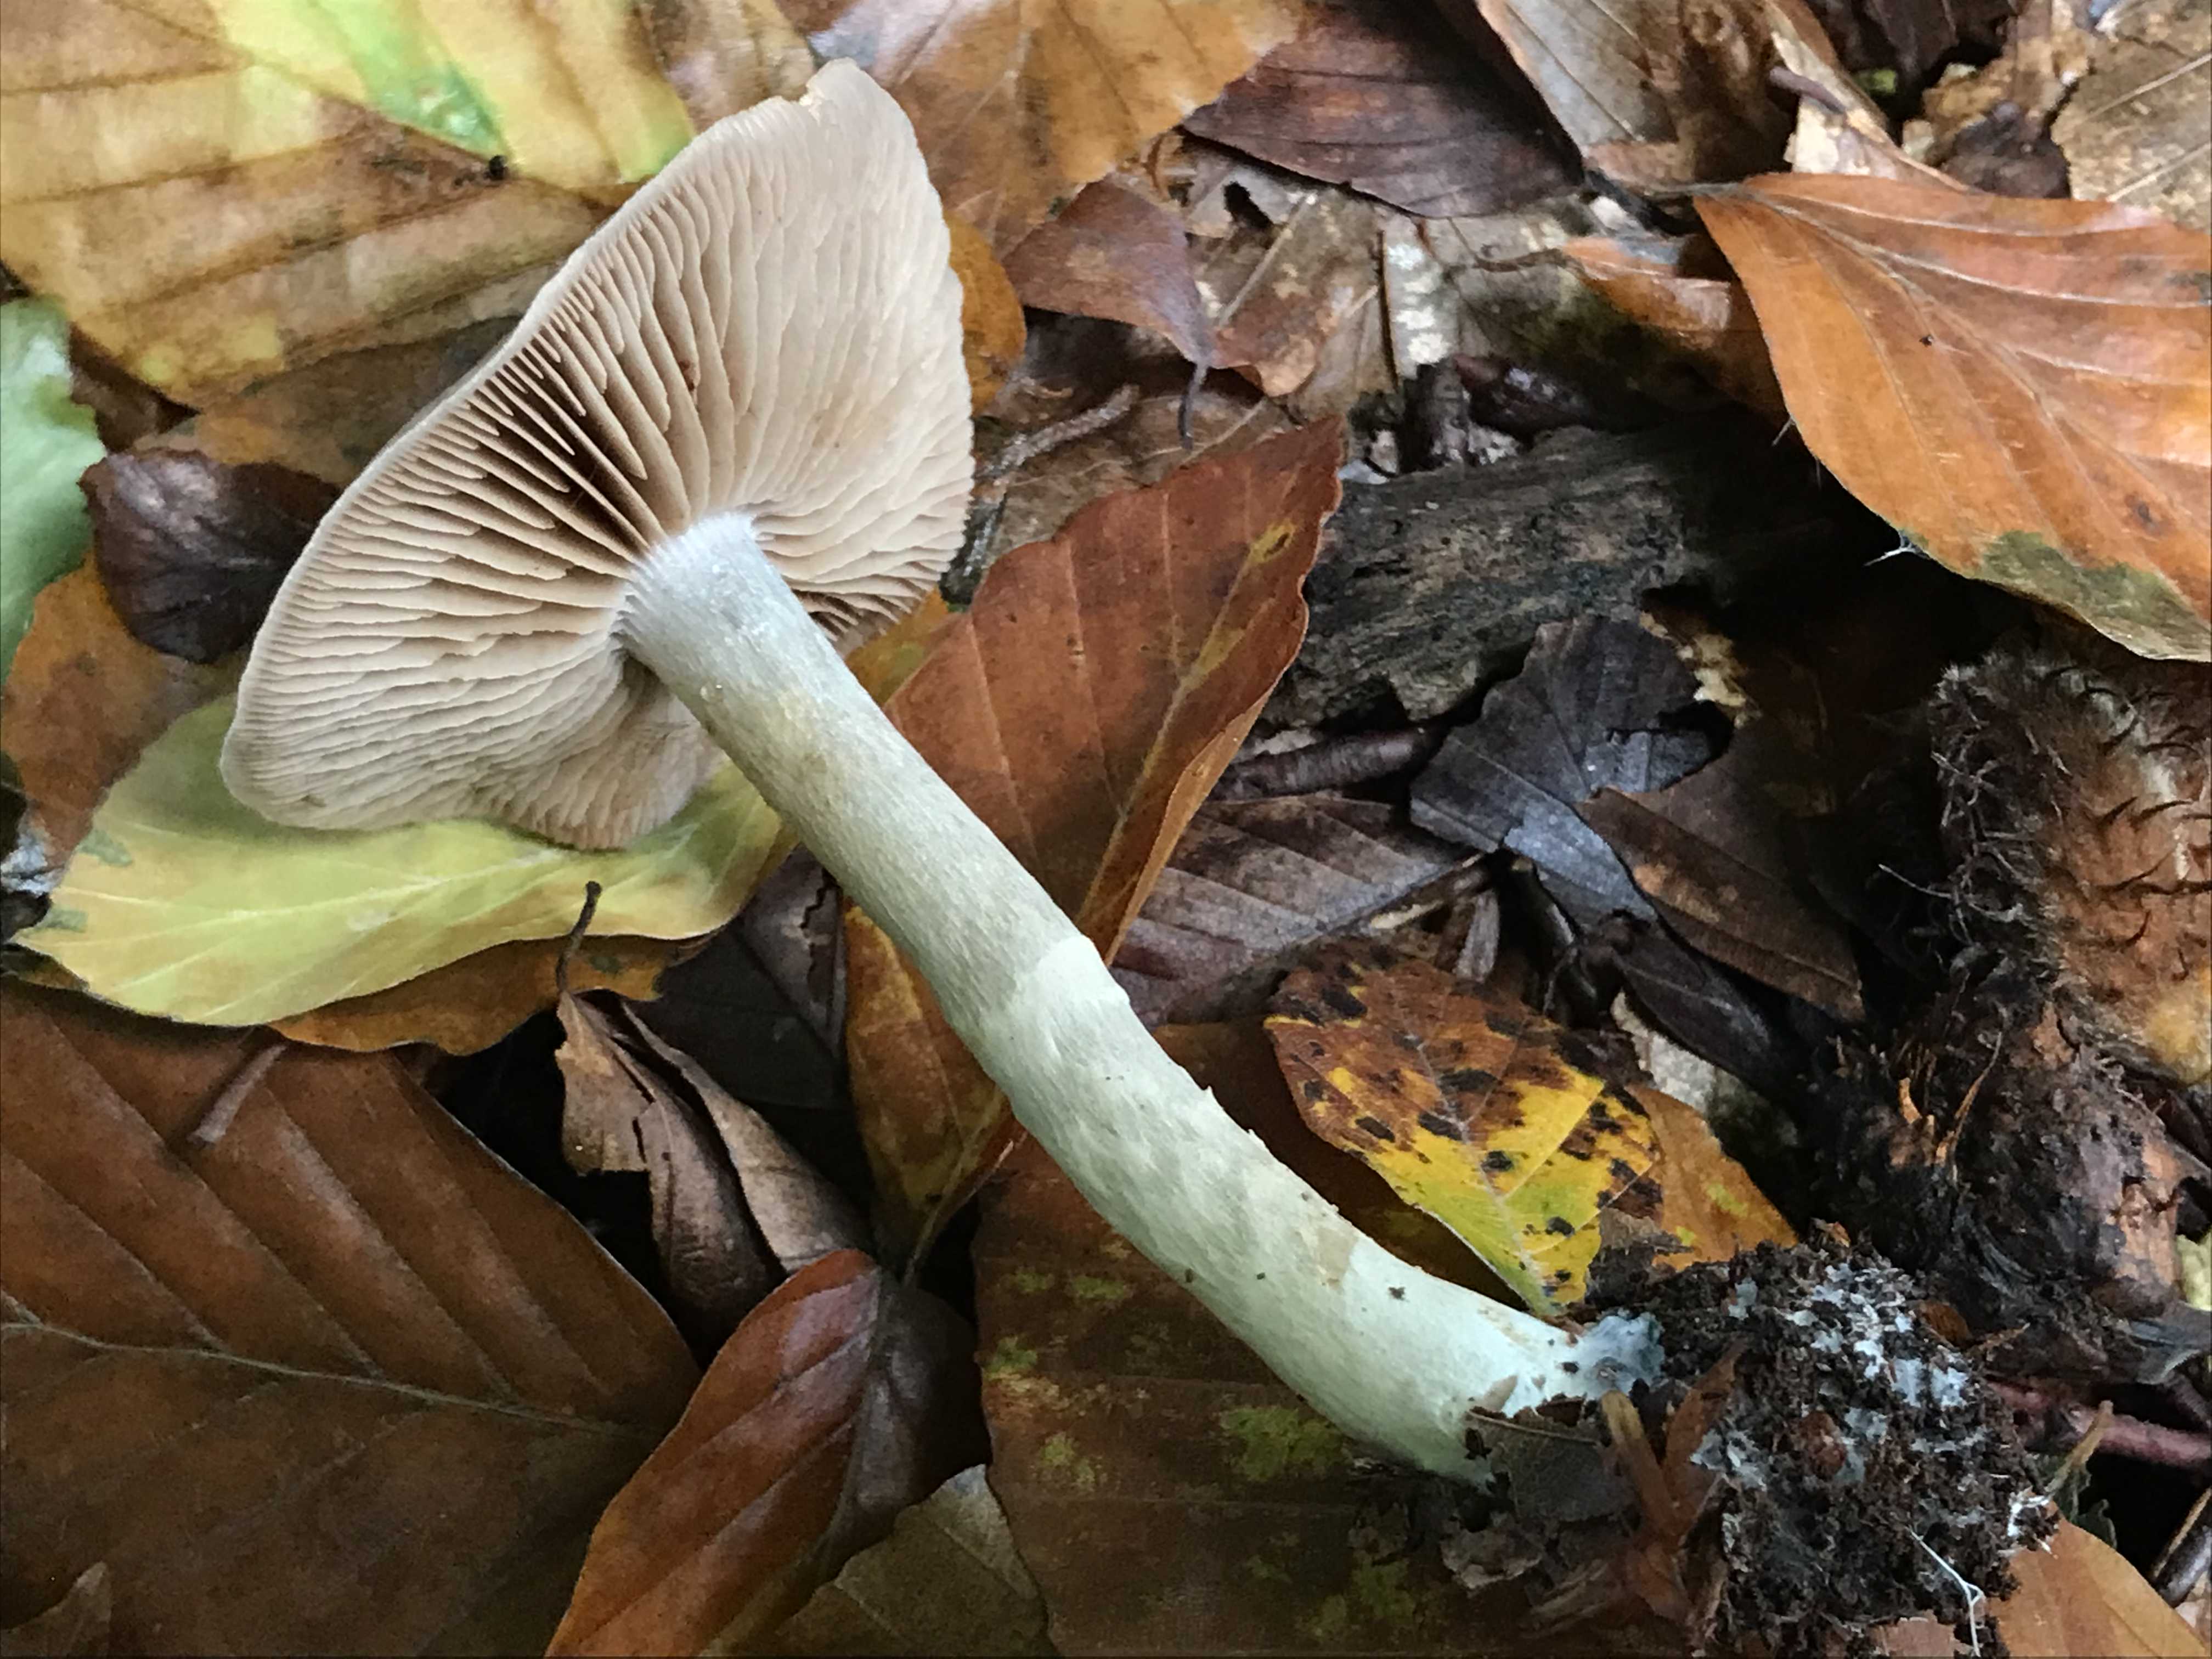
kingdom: Fungi
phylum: Basidiomycota
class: Agaricomycetes
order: Agaricales
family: Cortinariaceae
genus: Cortinarius
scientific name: Cortinarius
